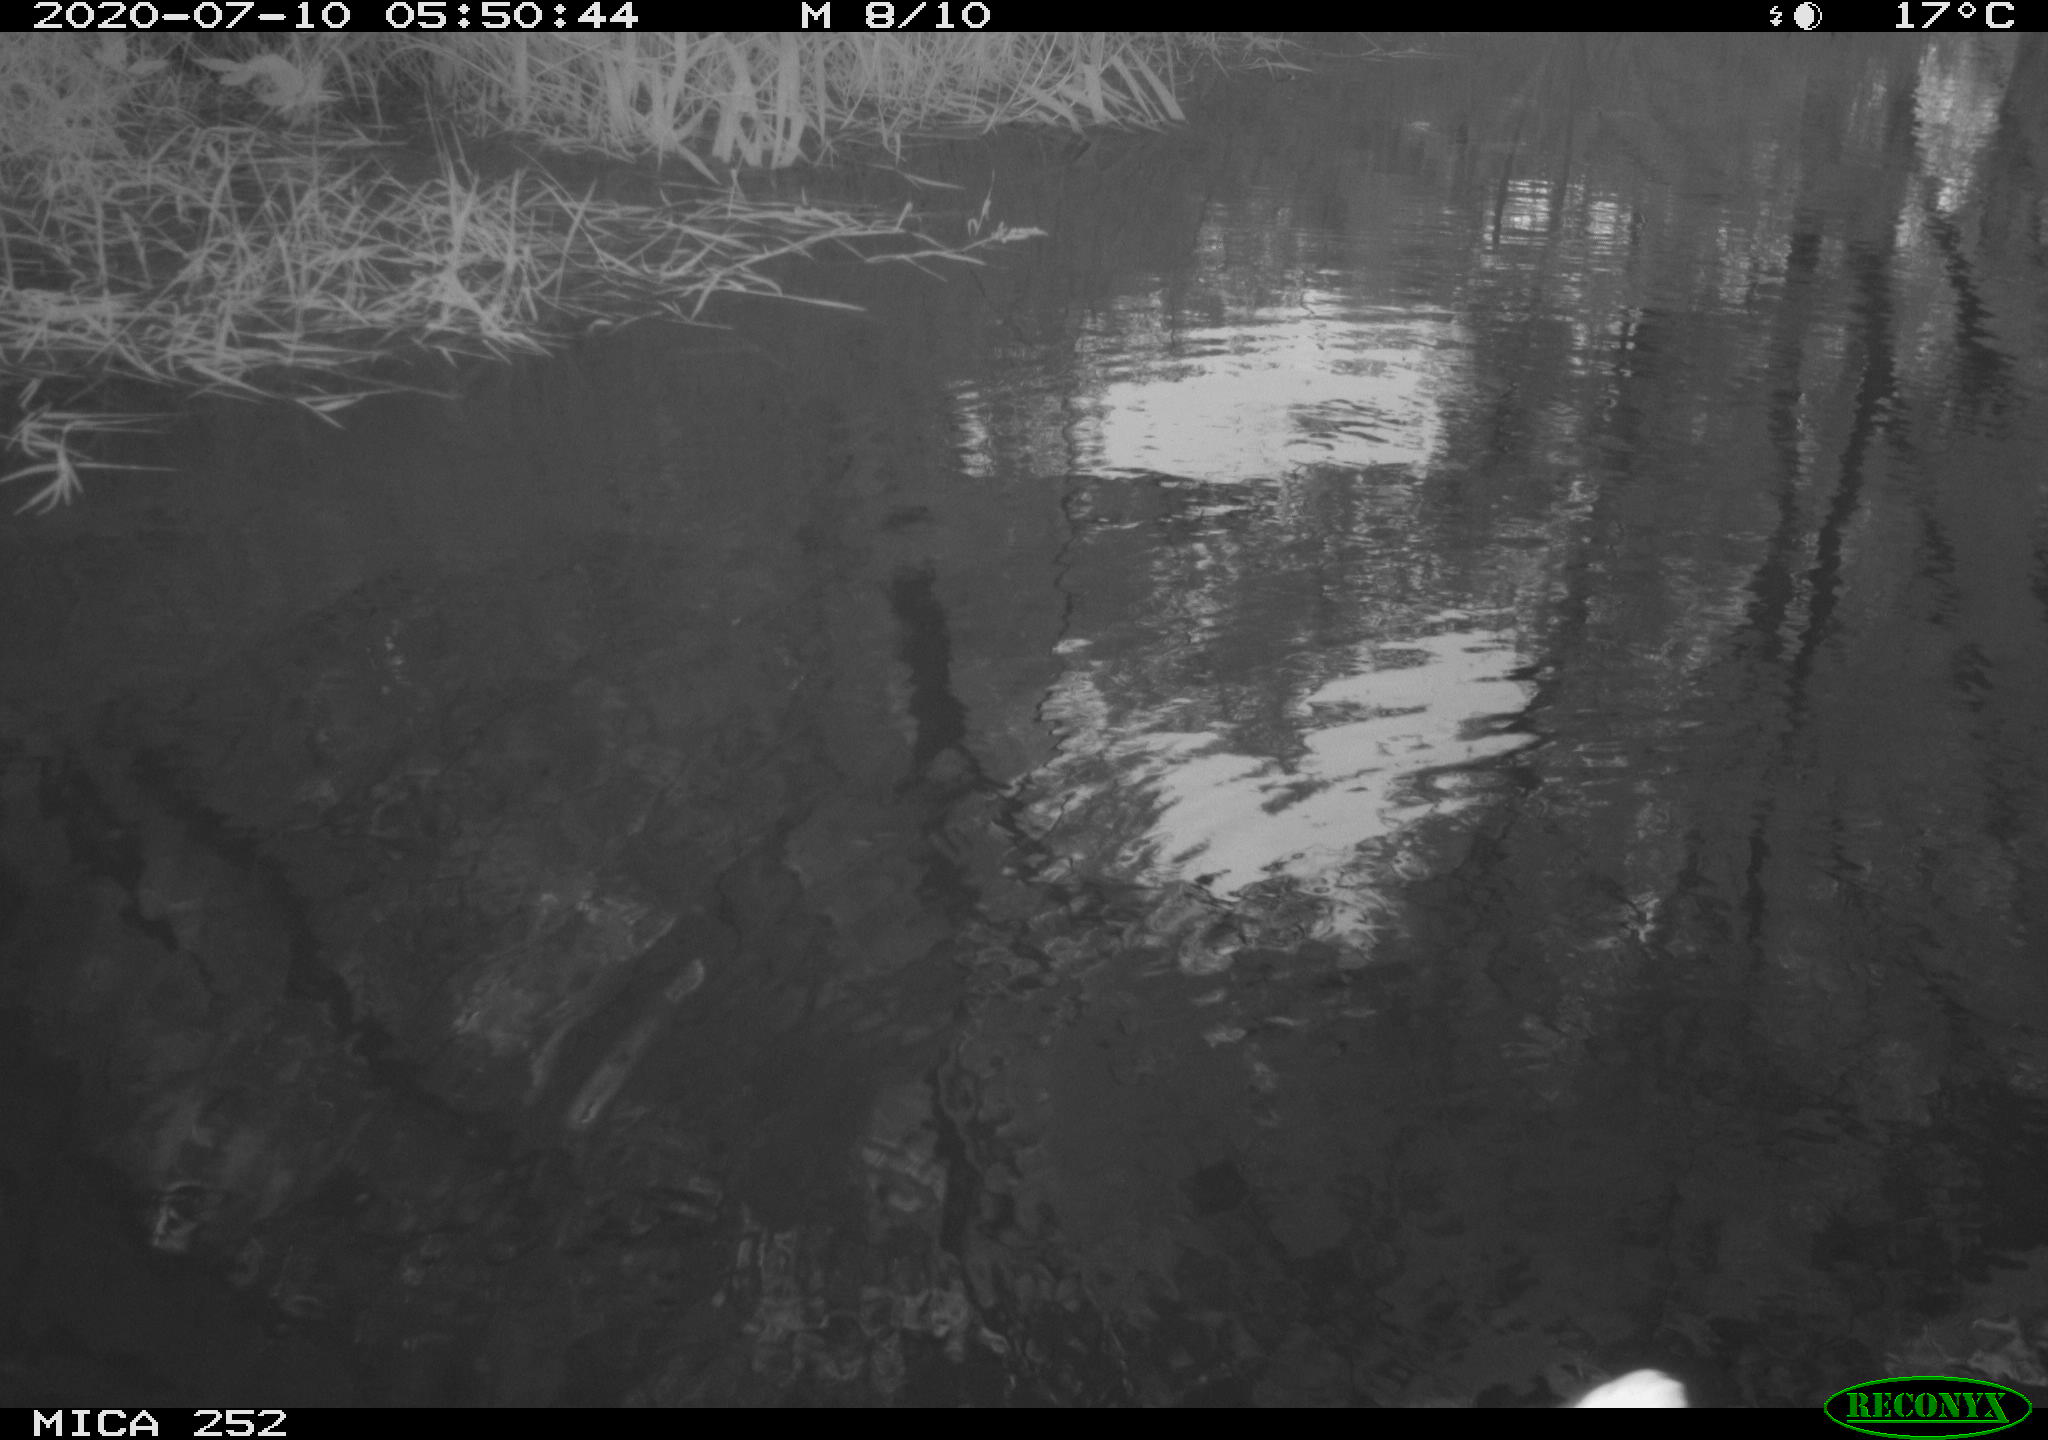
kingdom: Animalia
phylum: Chordata
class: Aves
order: Pelecaniformes
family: Ardeidae
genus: Ardea
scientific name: Ardea cinerea
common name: Grey heron
